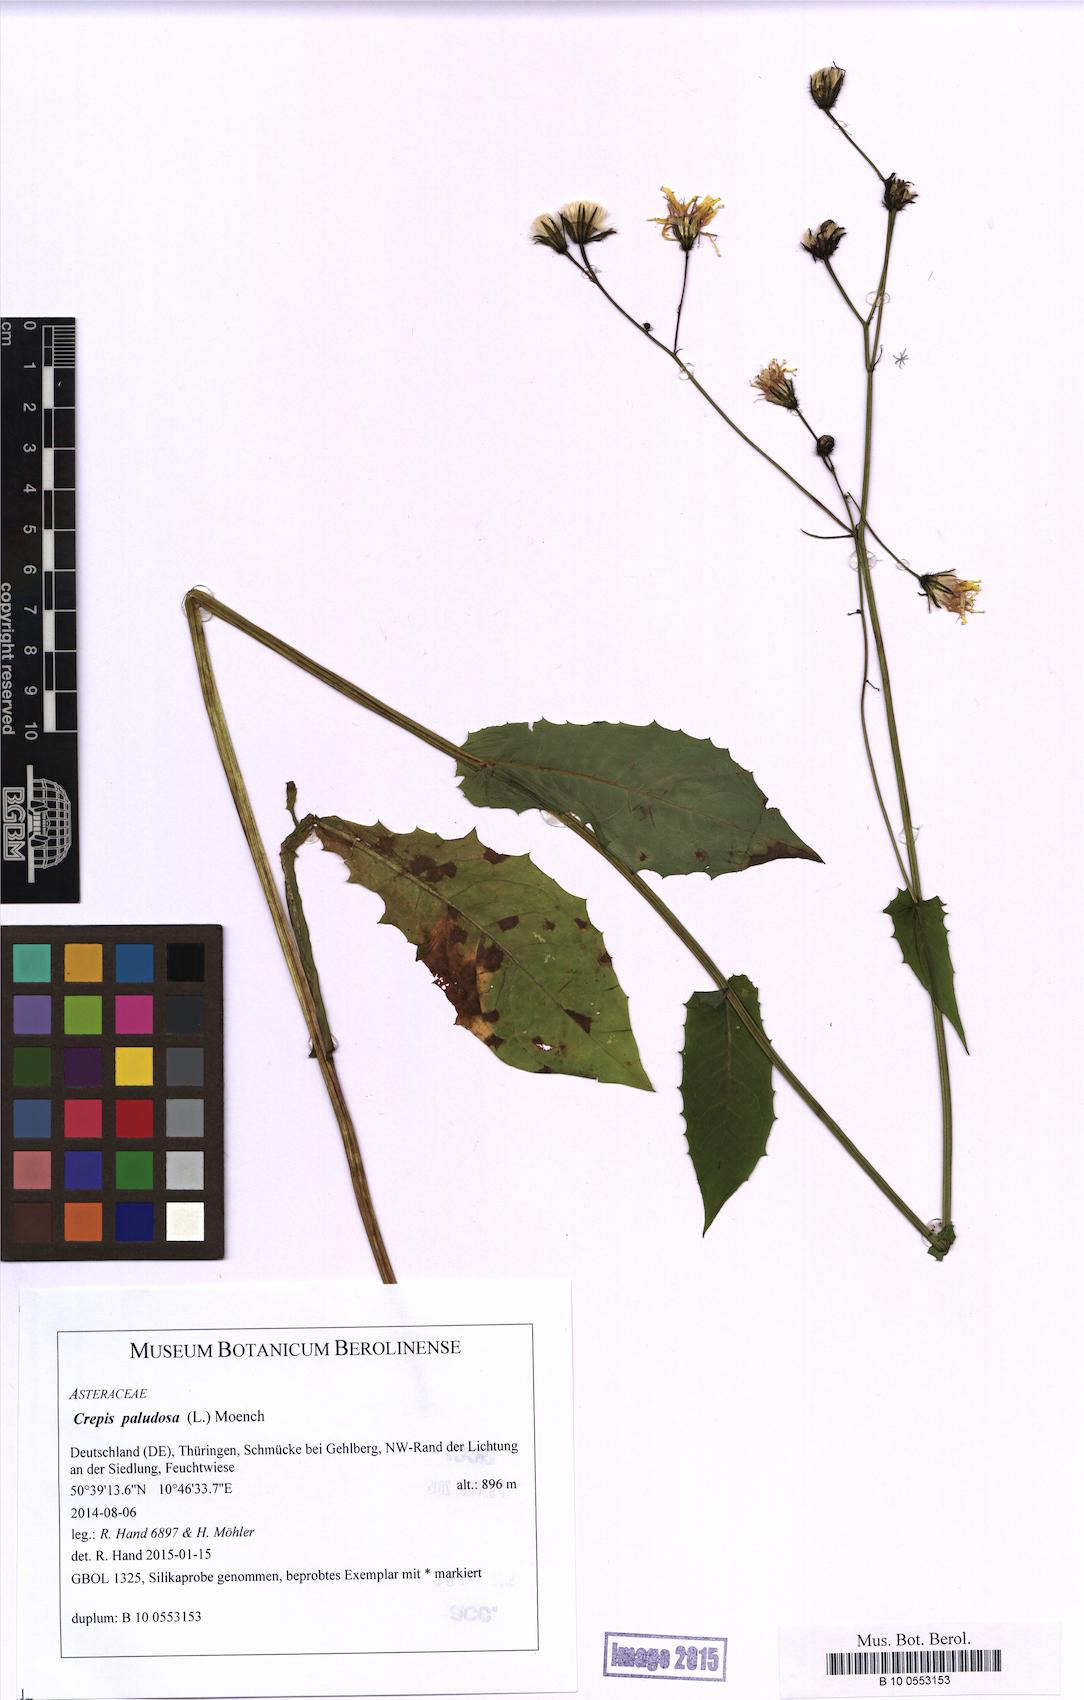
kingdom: Plantae
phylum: Tracheophyta
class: Magnoliopsida
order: Asterales
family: Asteraceae
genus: Crepis
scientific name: Crepis paludosa
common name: Marsh hawk's-beard
